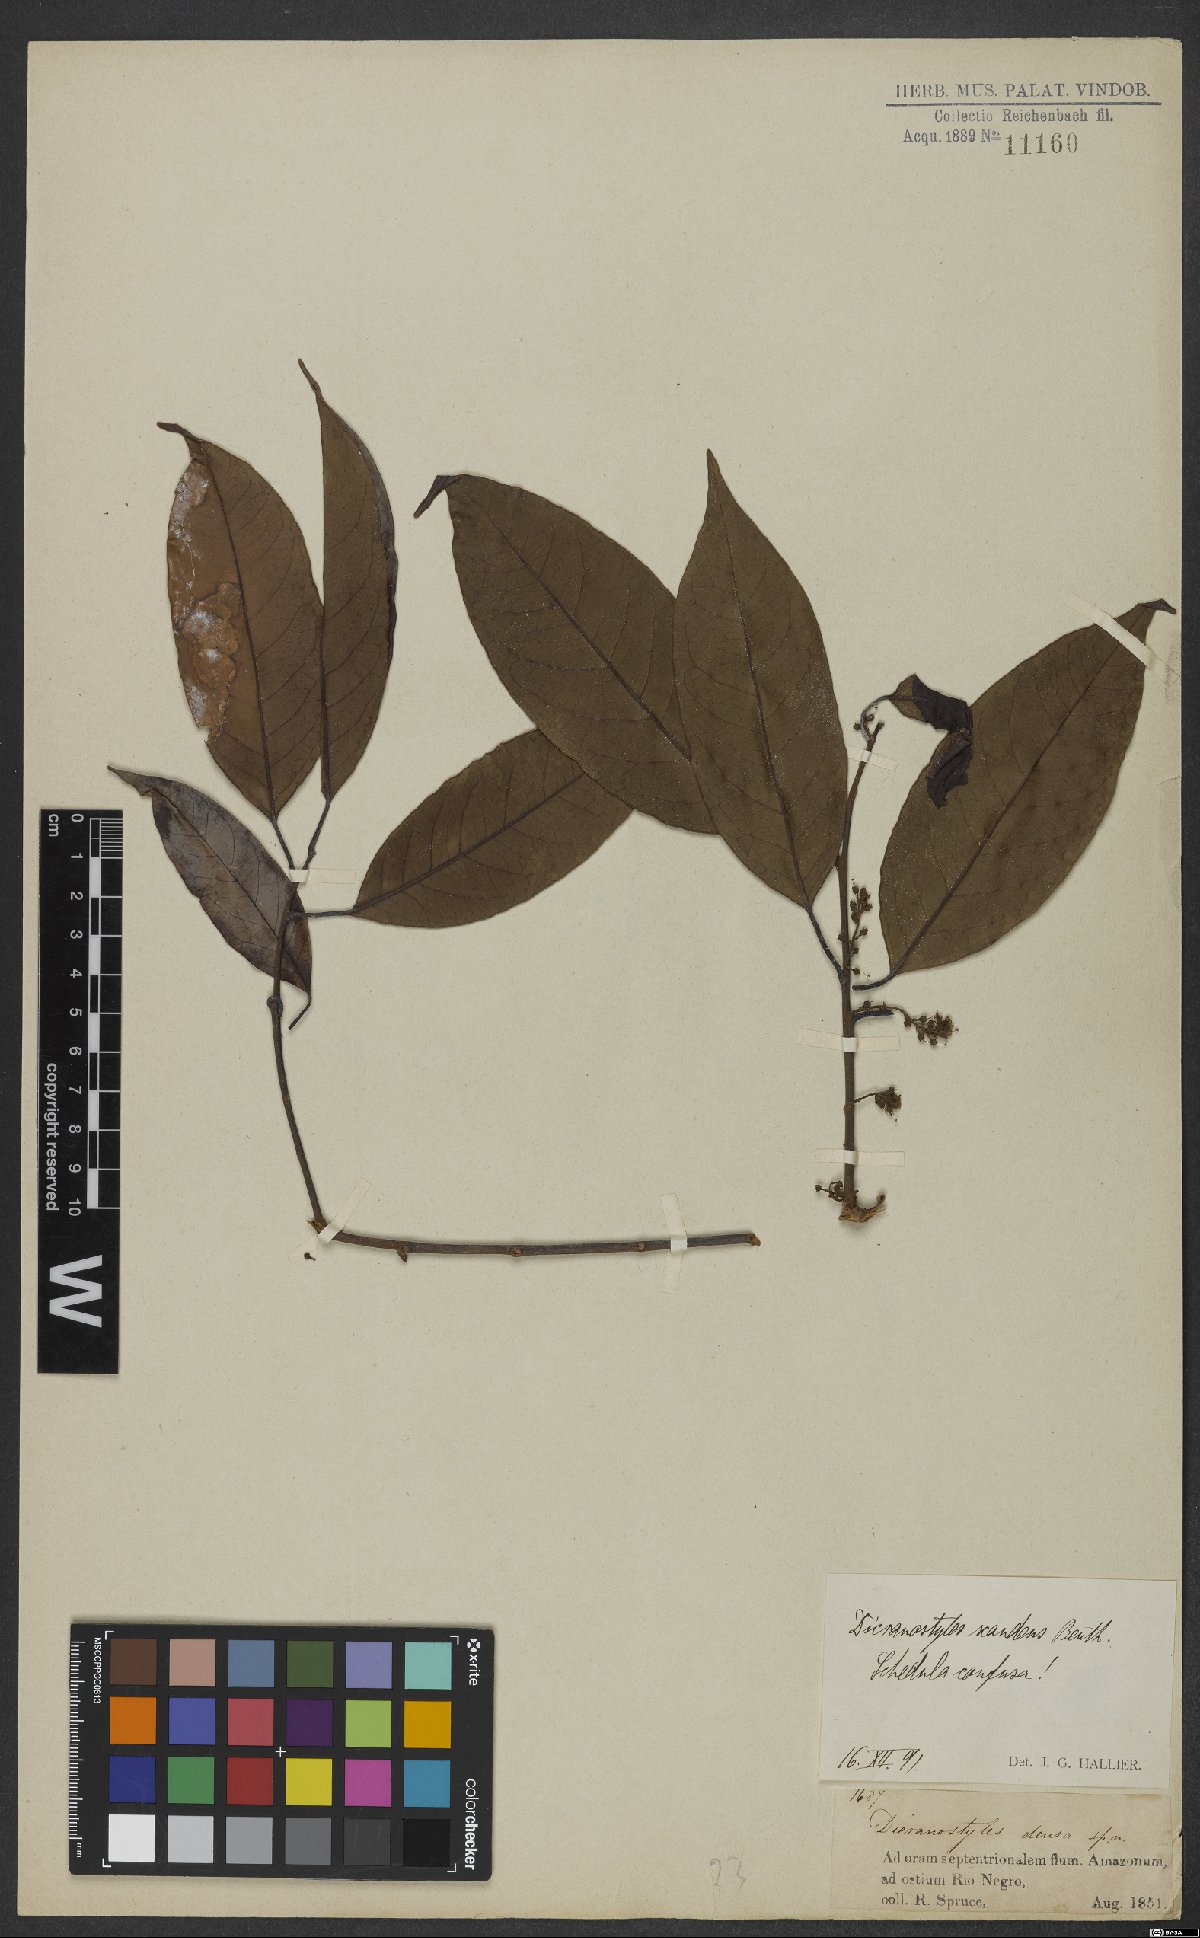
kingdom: Plantae
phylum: Tracheophyta
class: Magnoliopsida
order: Solanales
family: Convolvulaceae
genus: Dicranostyles
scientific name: Dicranostyles scandens
